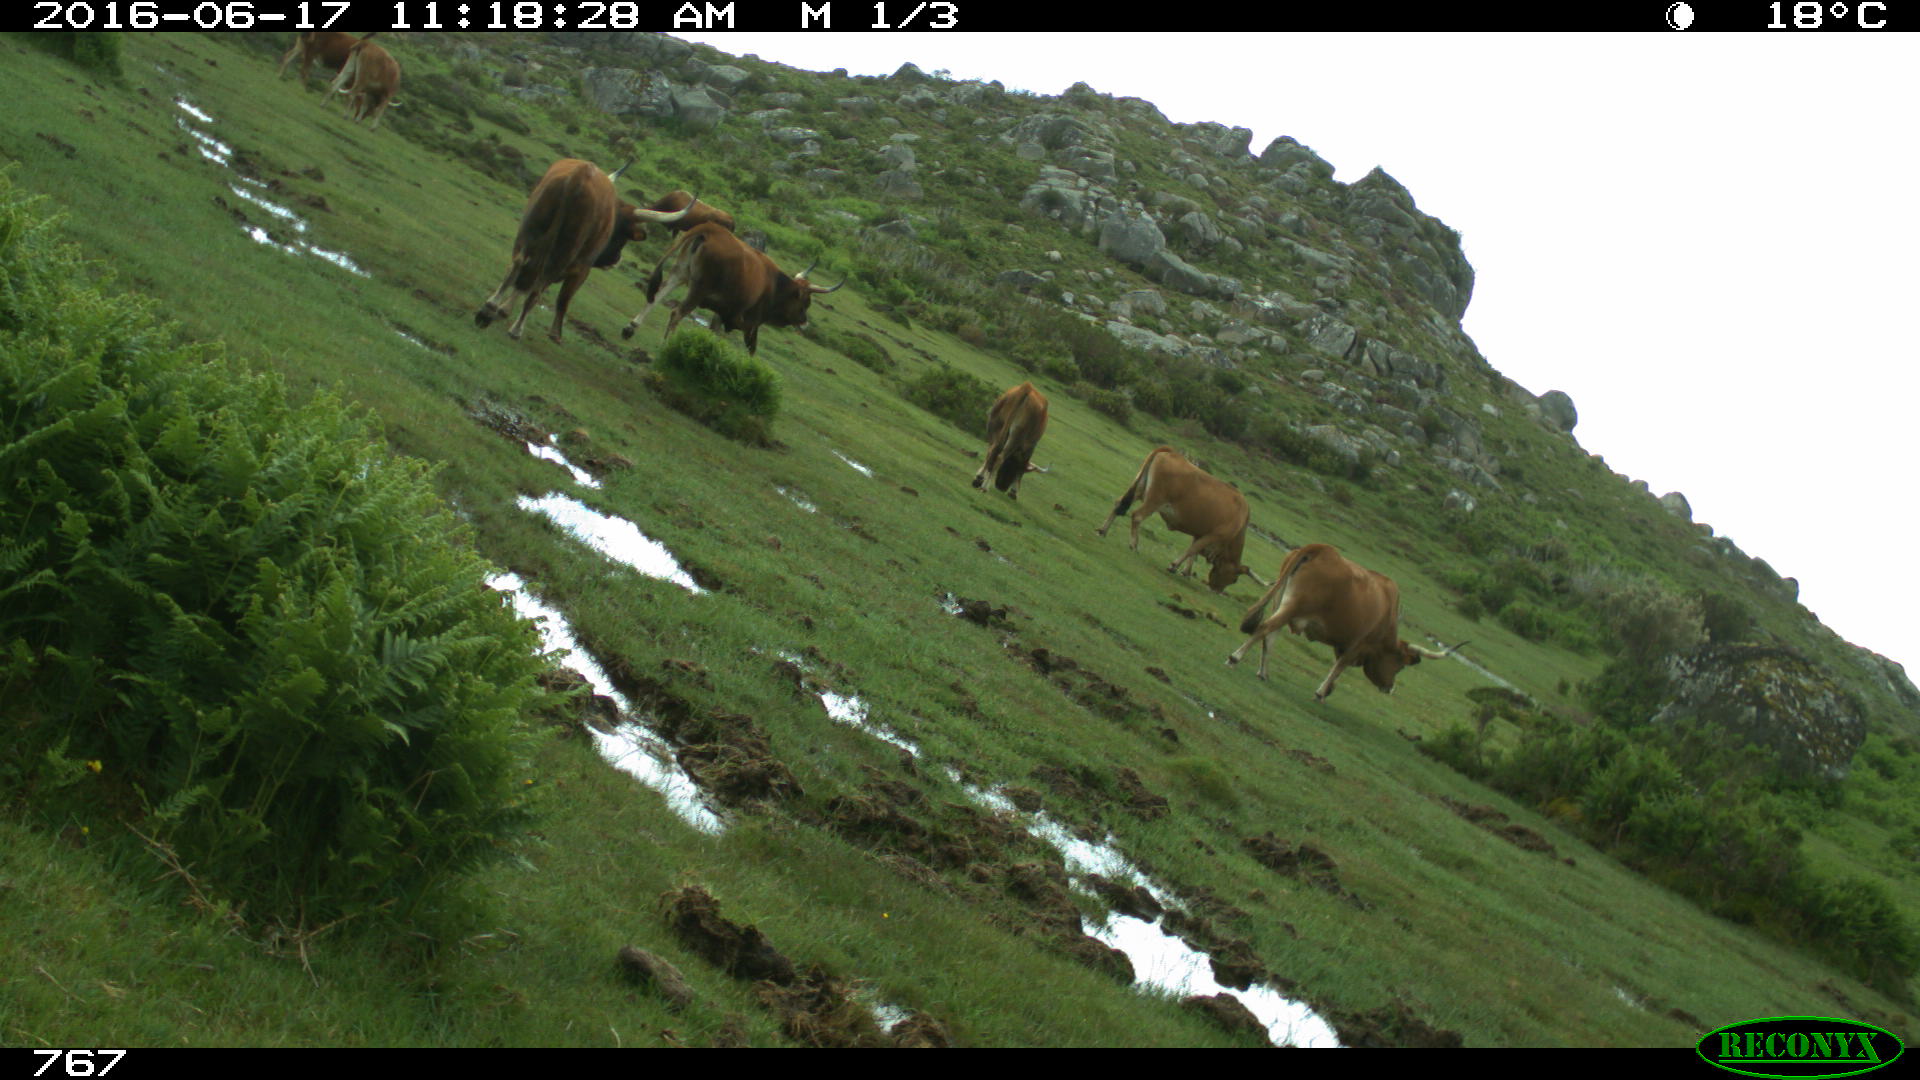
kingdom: Animalia
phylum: Chordata
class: Mammalia
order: Artiodactyla
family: Bovidae
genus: Bos
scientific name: Bos taurus
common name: Domesticated cattle
